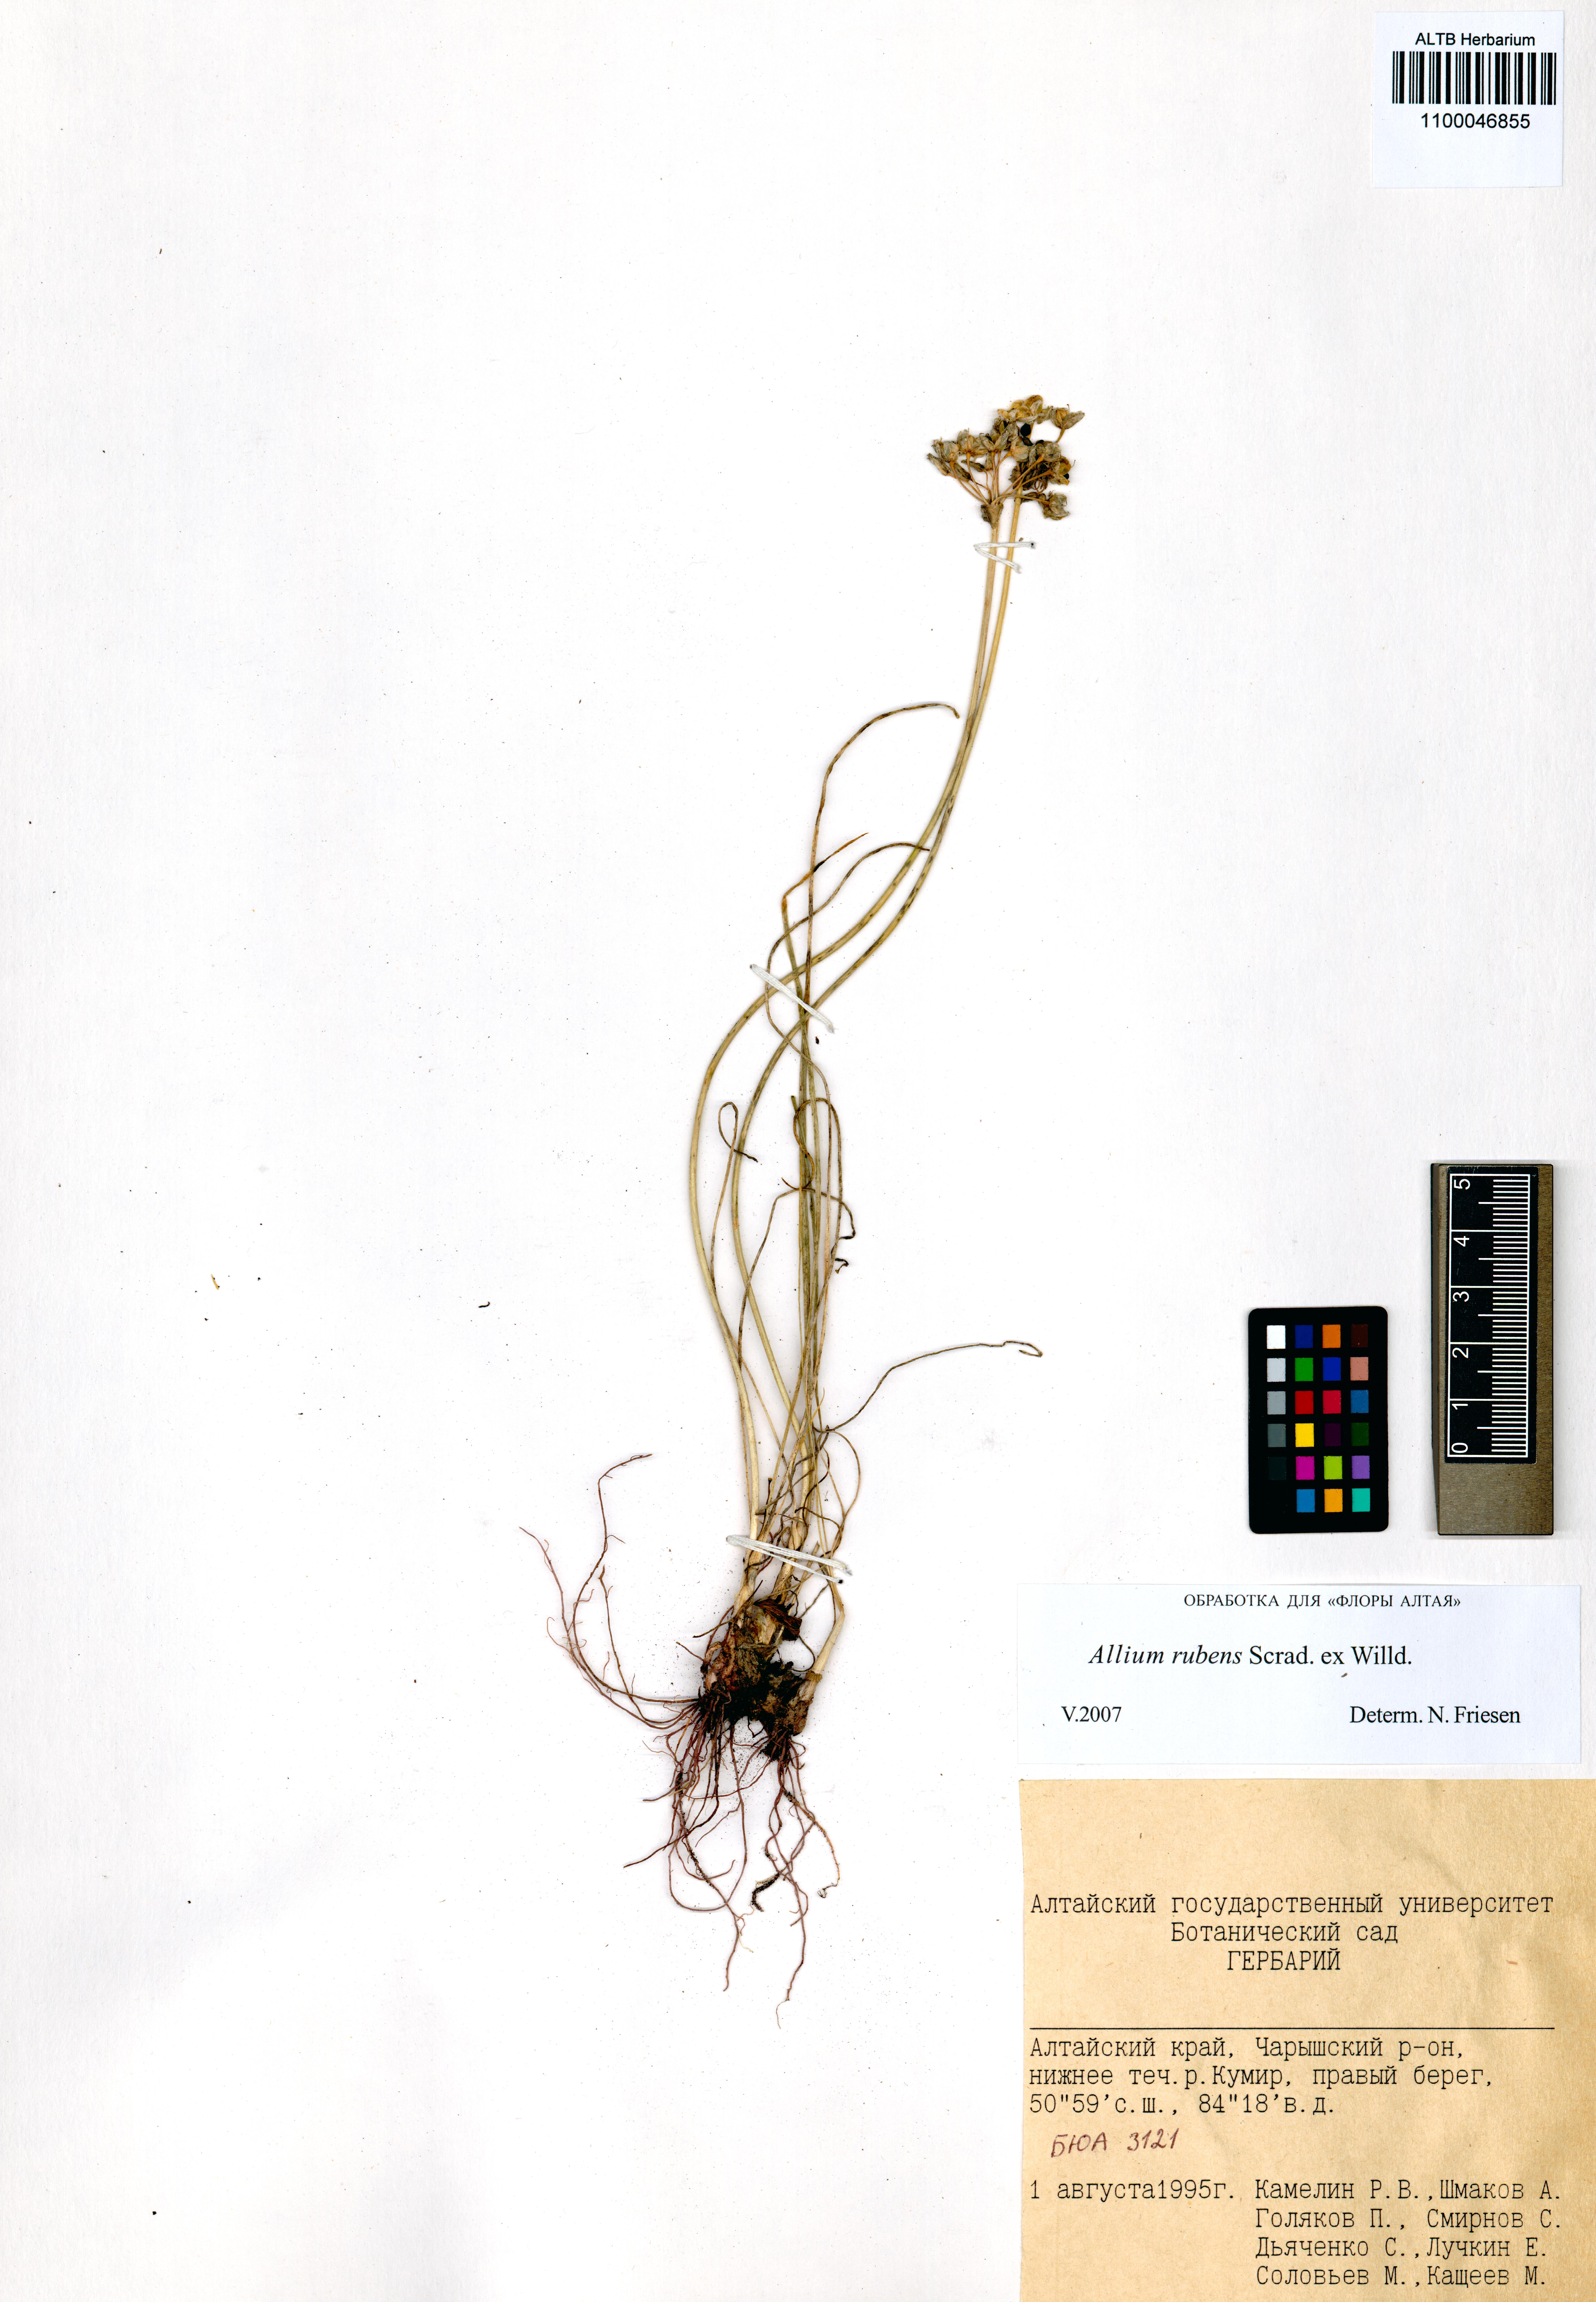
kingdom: Plantae
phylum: Tracheophyta
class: Liliopsida
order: Asparagales
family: Amaryllidaceae
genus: Allium
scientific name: Allium rubens
